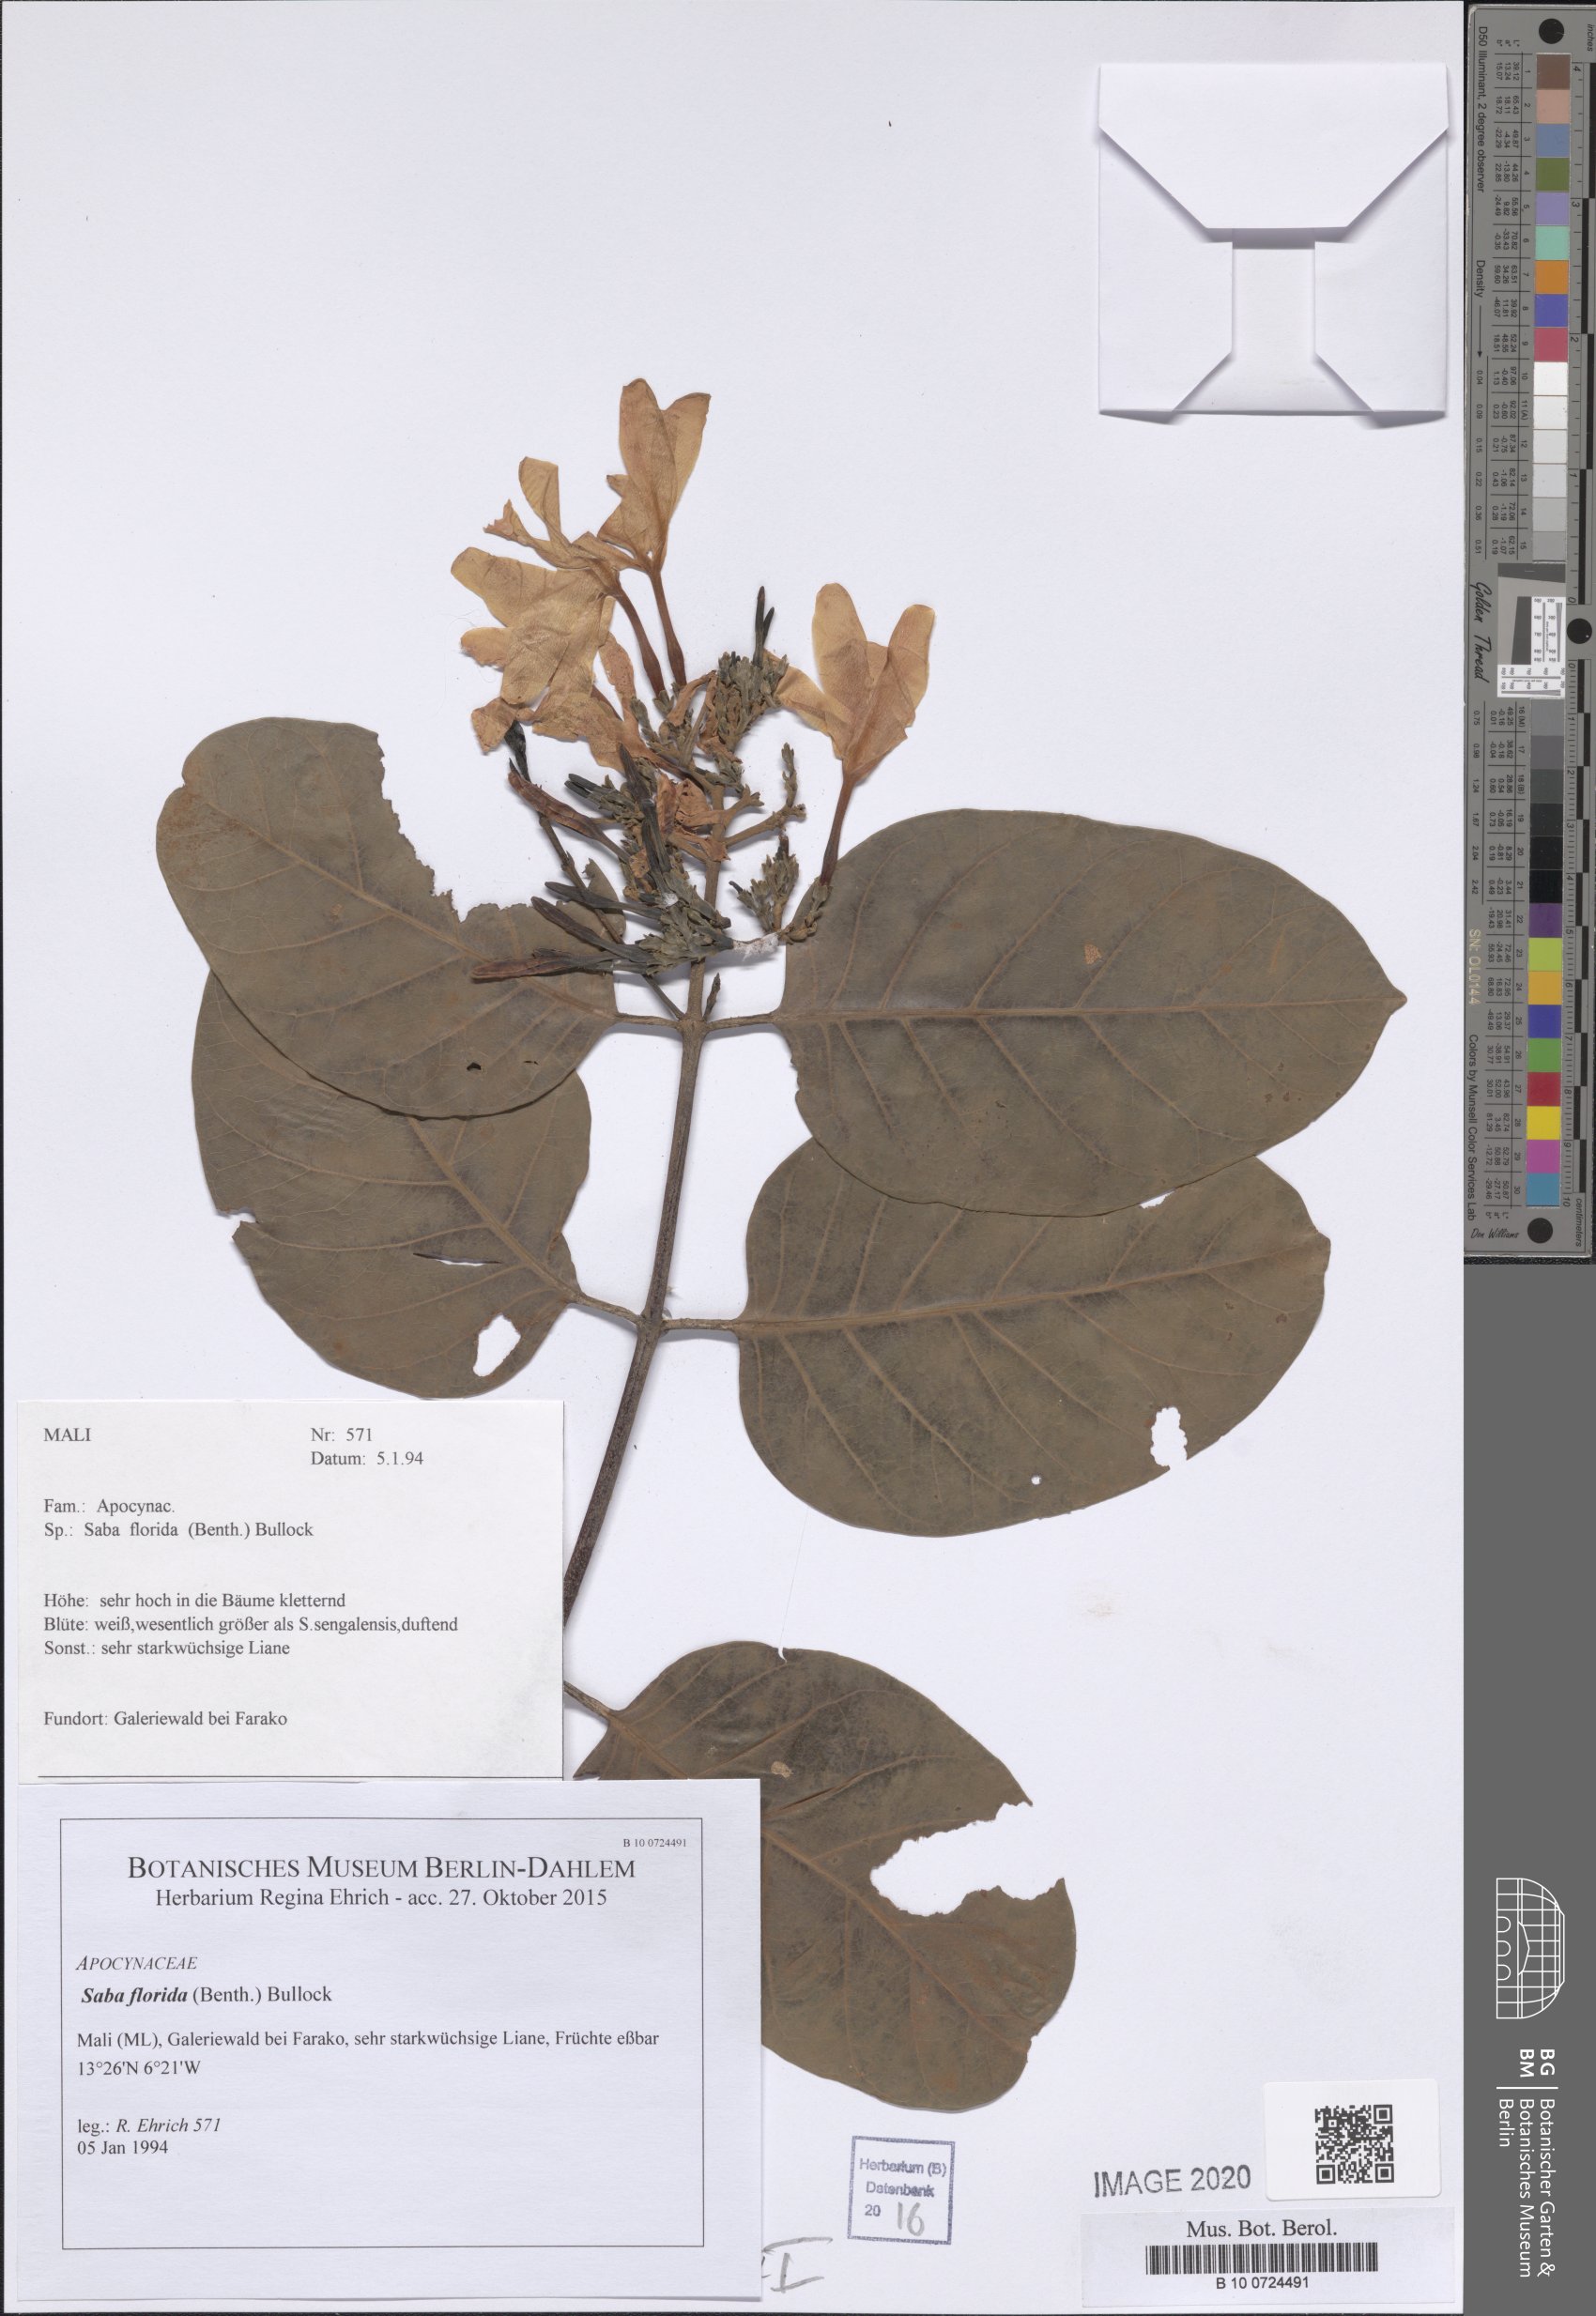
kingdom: Plantae
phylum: Tracheophyta
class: Magnoliopsida
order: Gentianales
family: Apocynaceae
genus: Saba
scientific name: Saba comorensis
